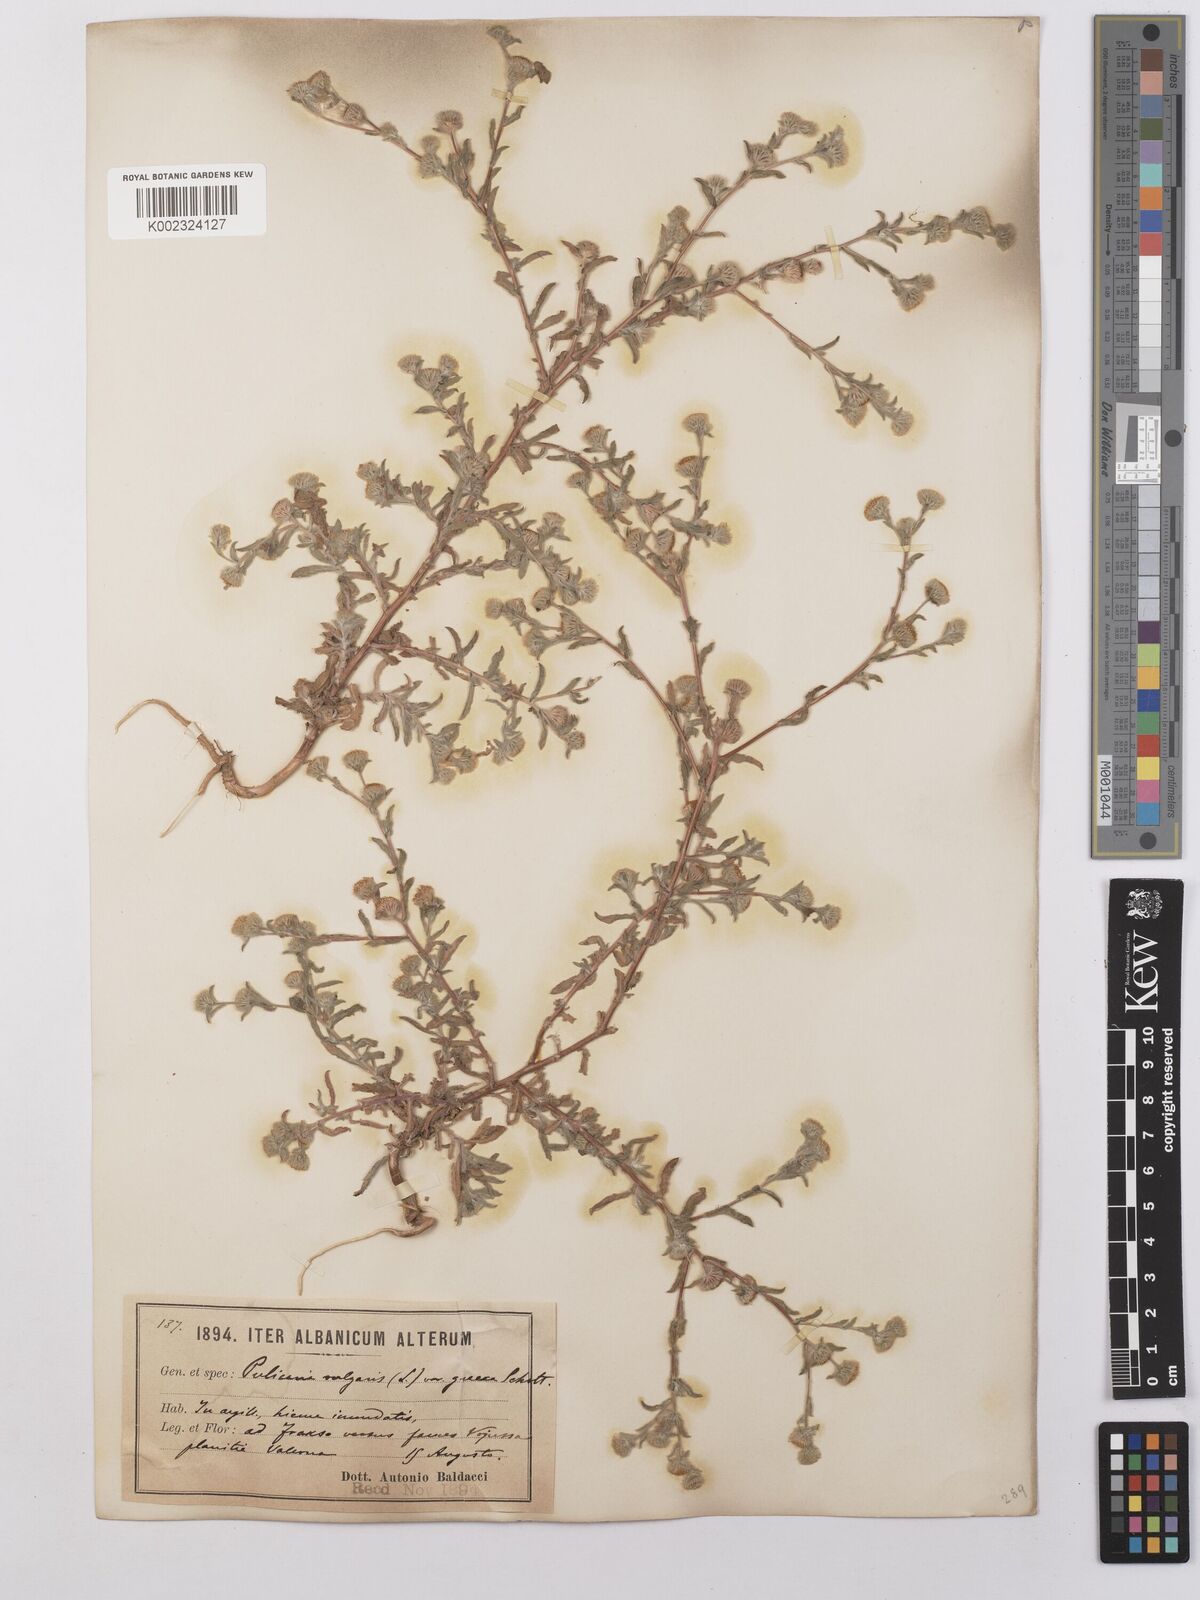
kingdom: Plantae
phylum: Tracheophyta
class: Magnoliopsida
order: Asterales
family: Asteraceae
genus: Pulicaria
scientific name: Pulicaria vulgaris
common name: Small fleabane
